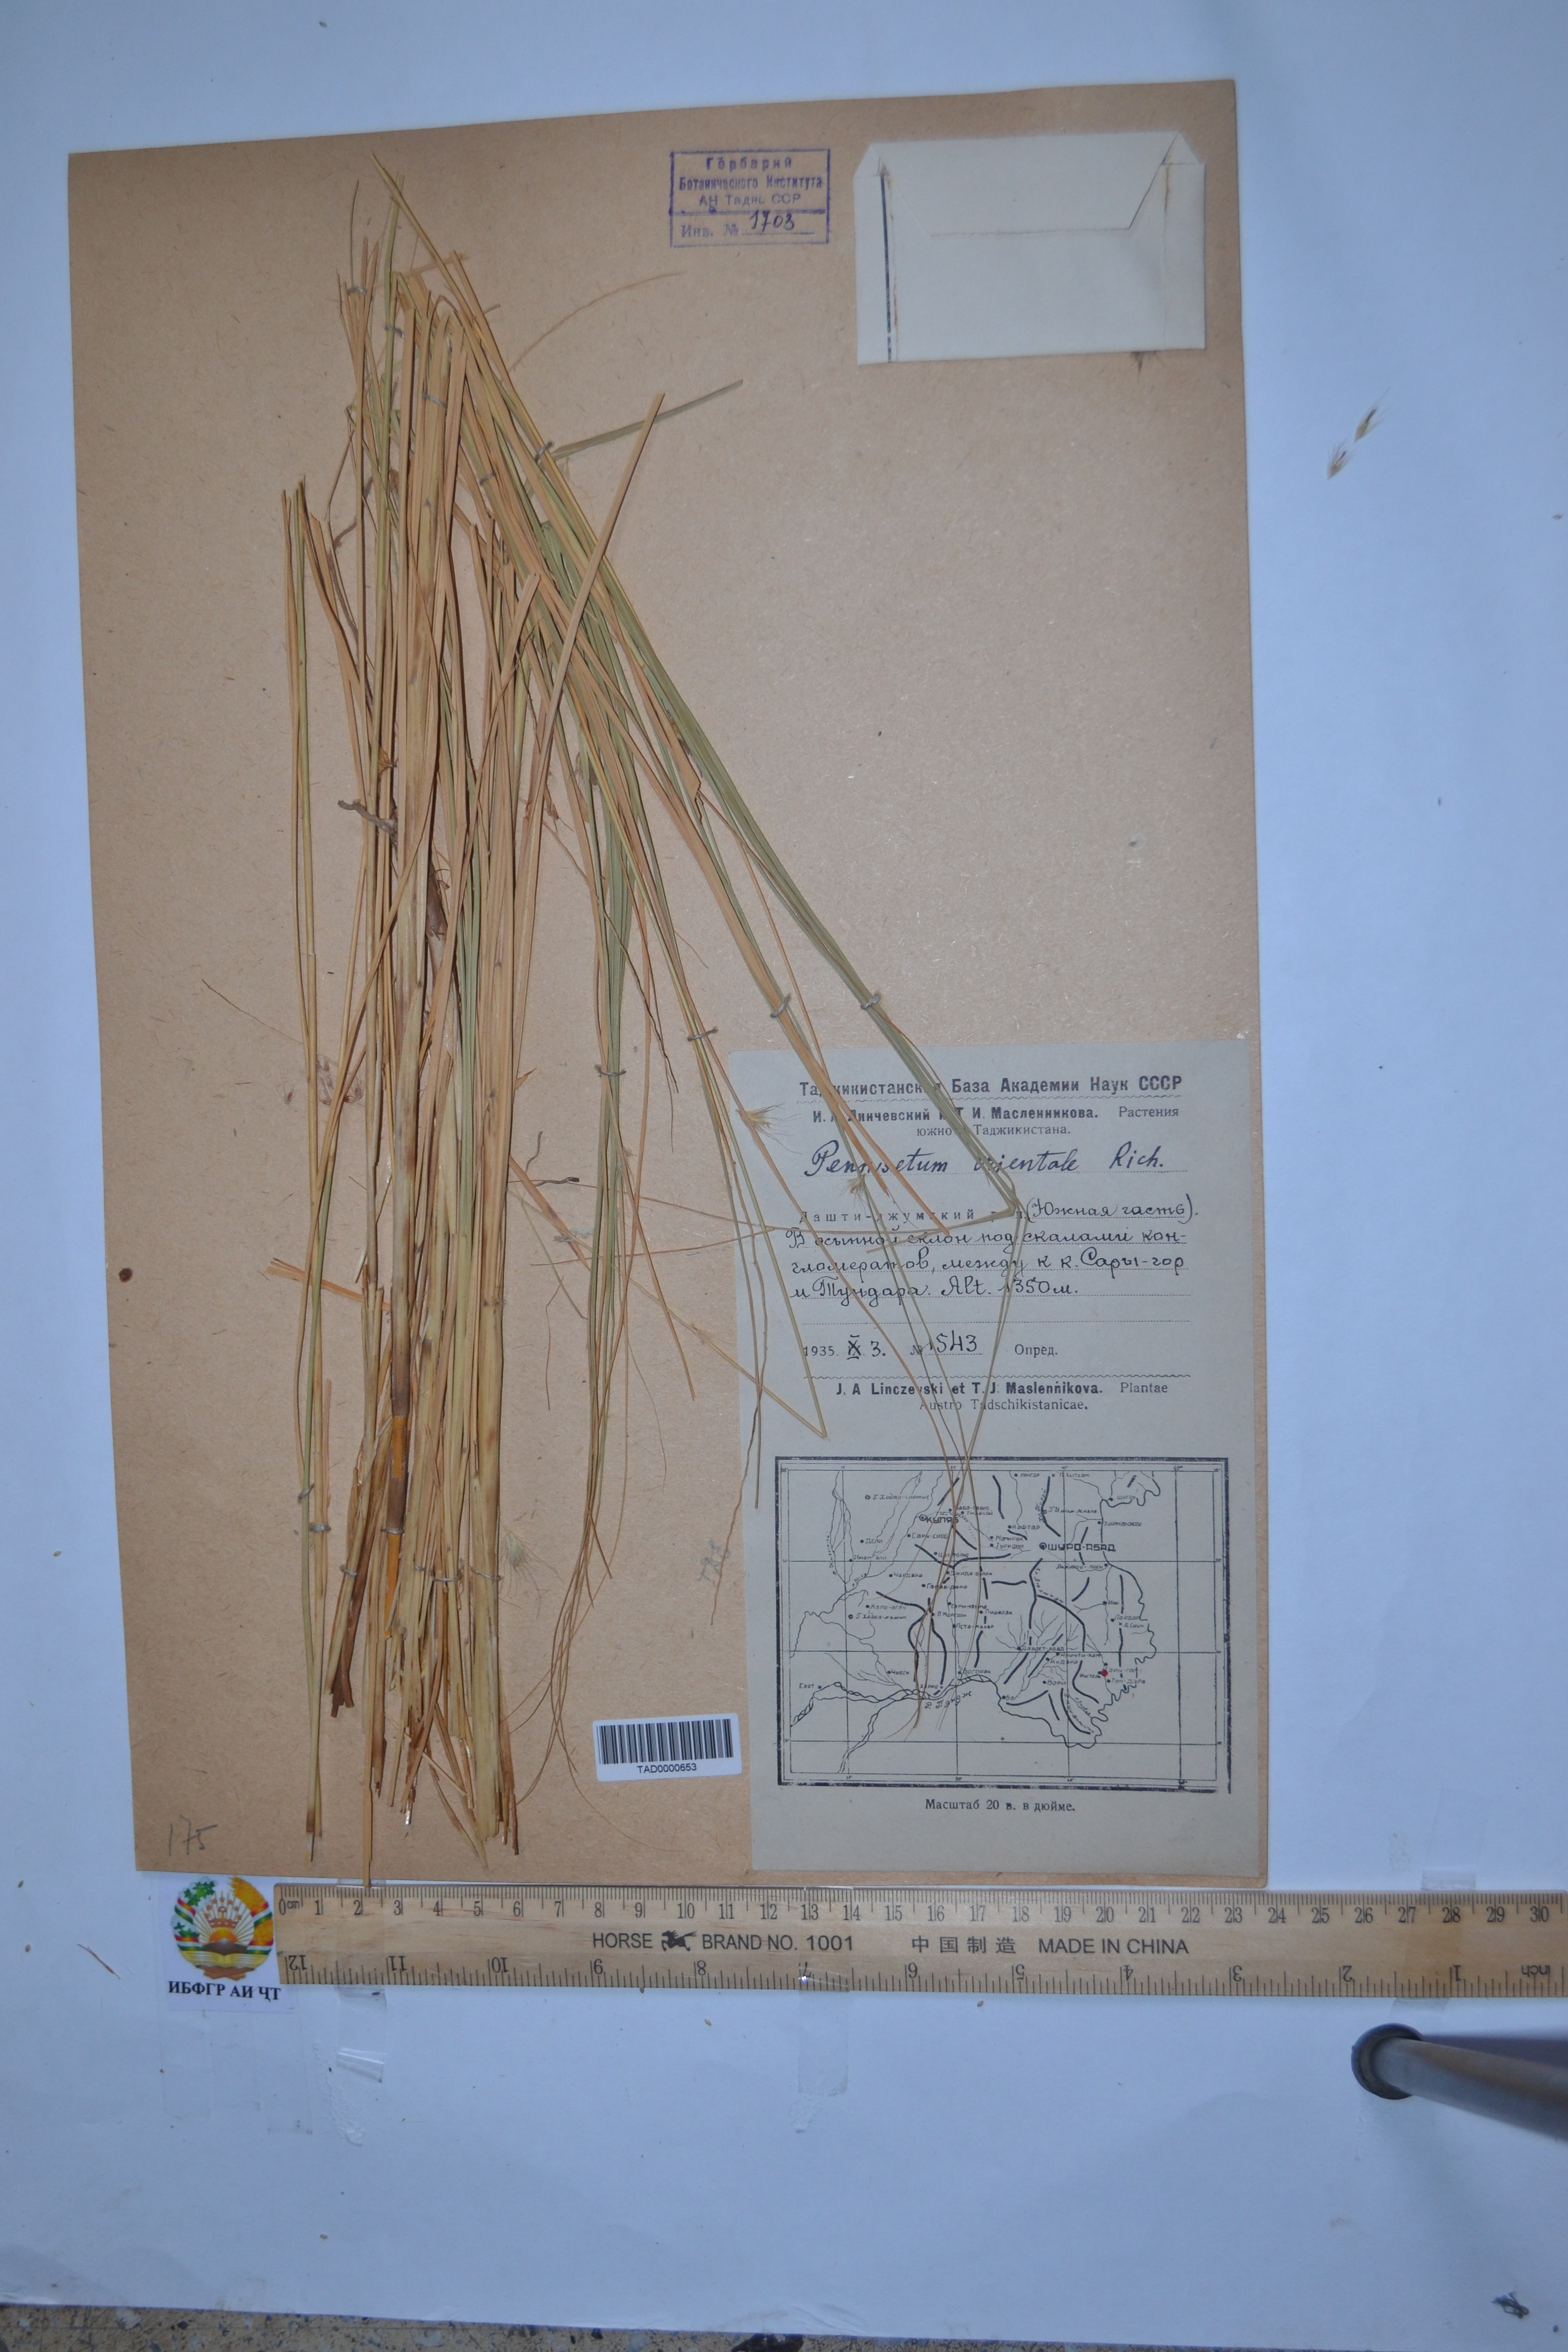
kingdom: Plantae
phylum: Tracheophyta
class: Liliopsida
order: Poales
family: Poaceae
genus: Cenchrus
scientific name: Cenchrus Pennisetum spec
